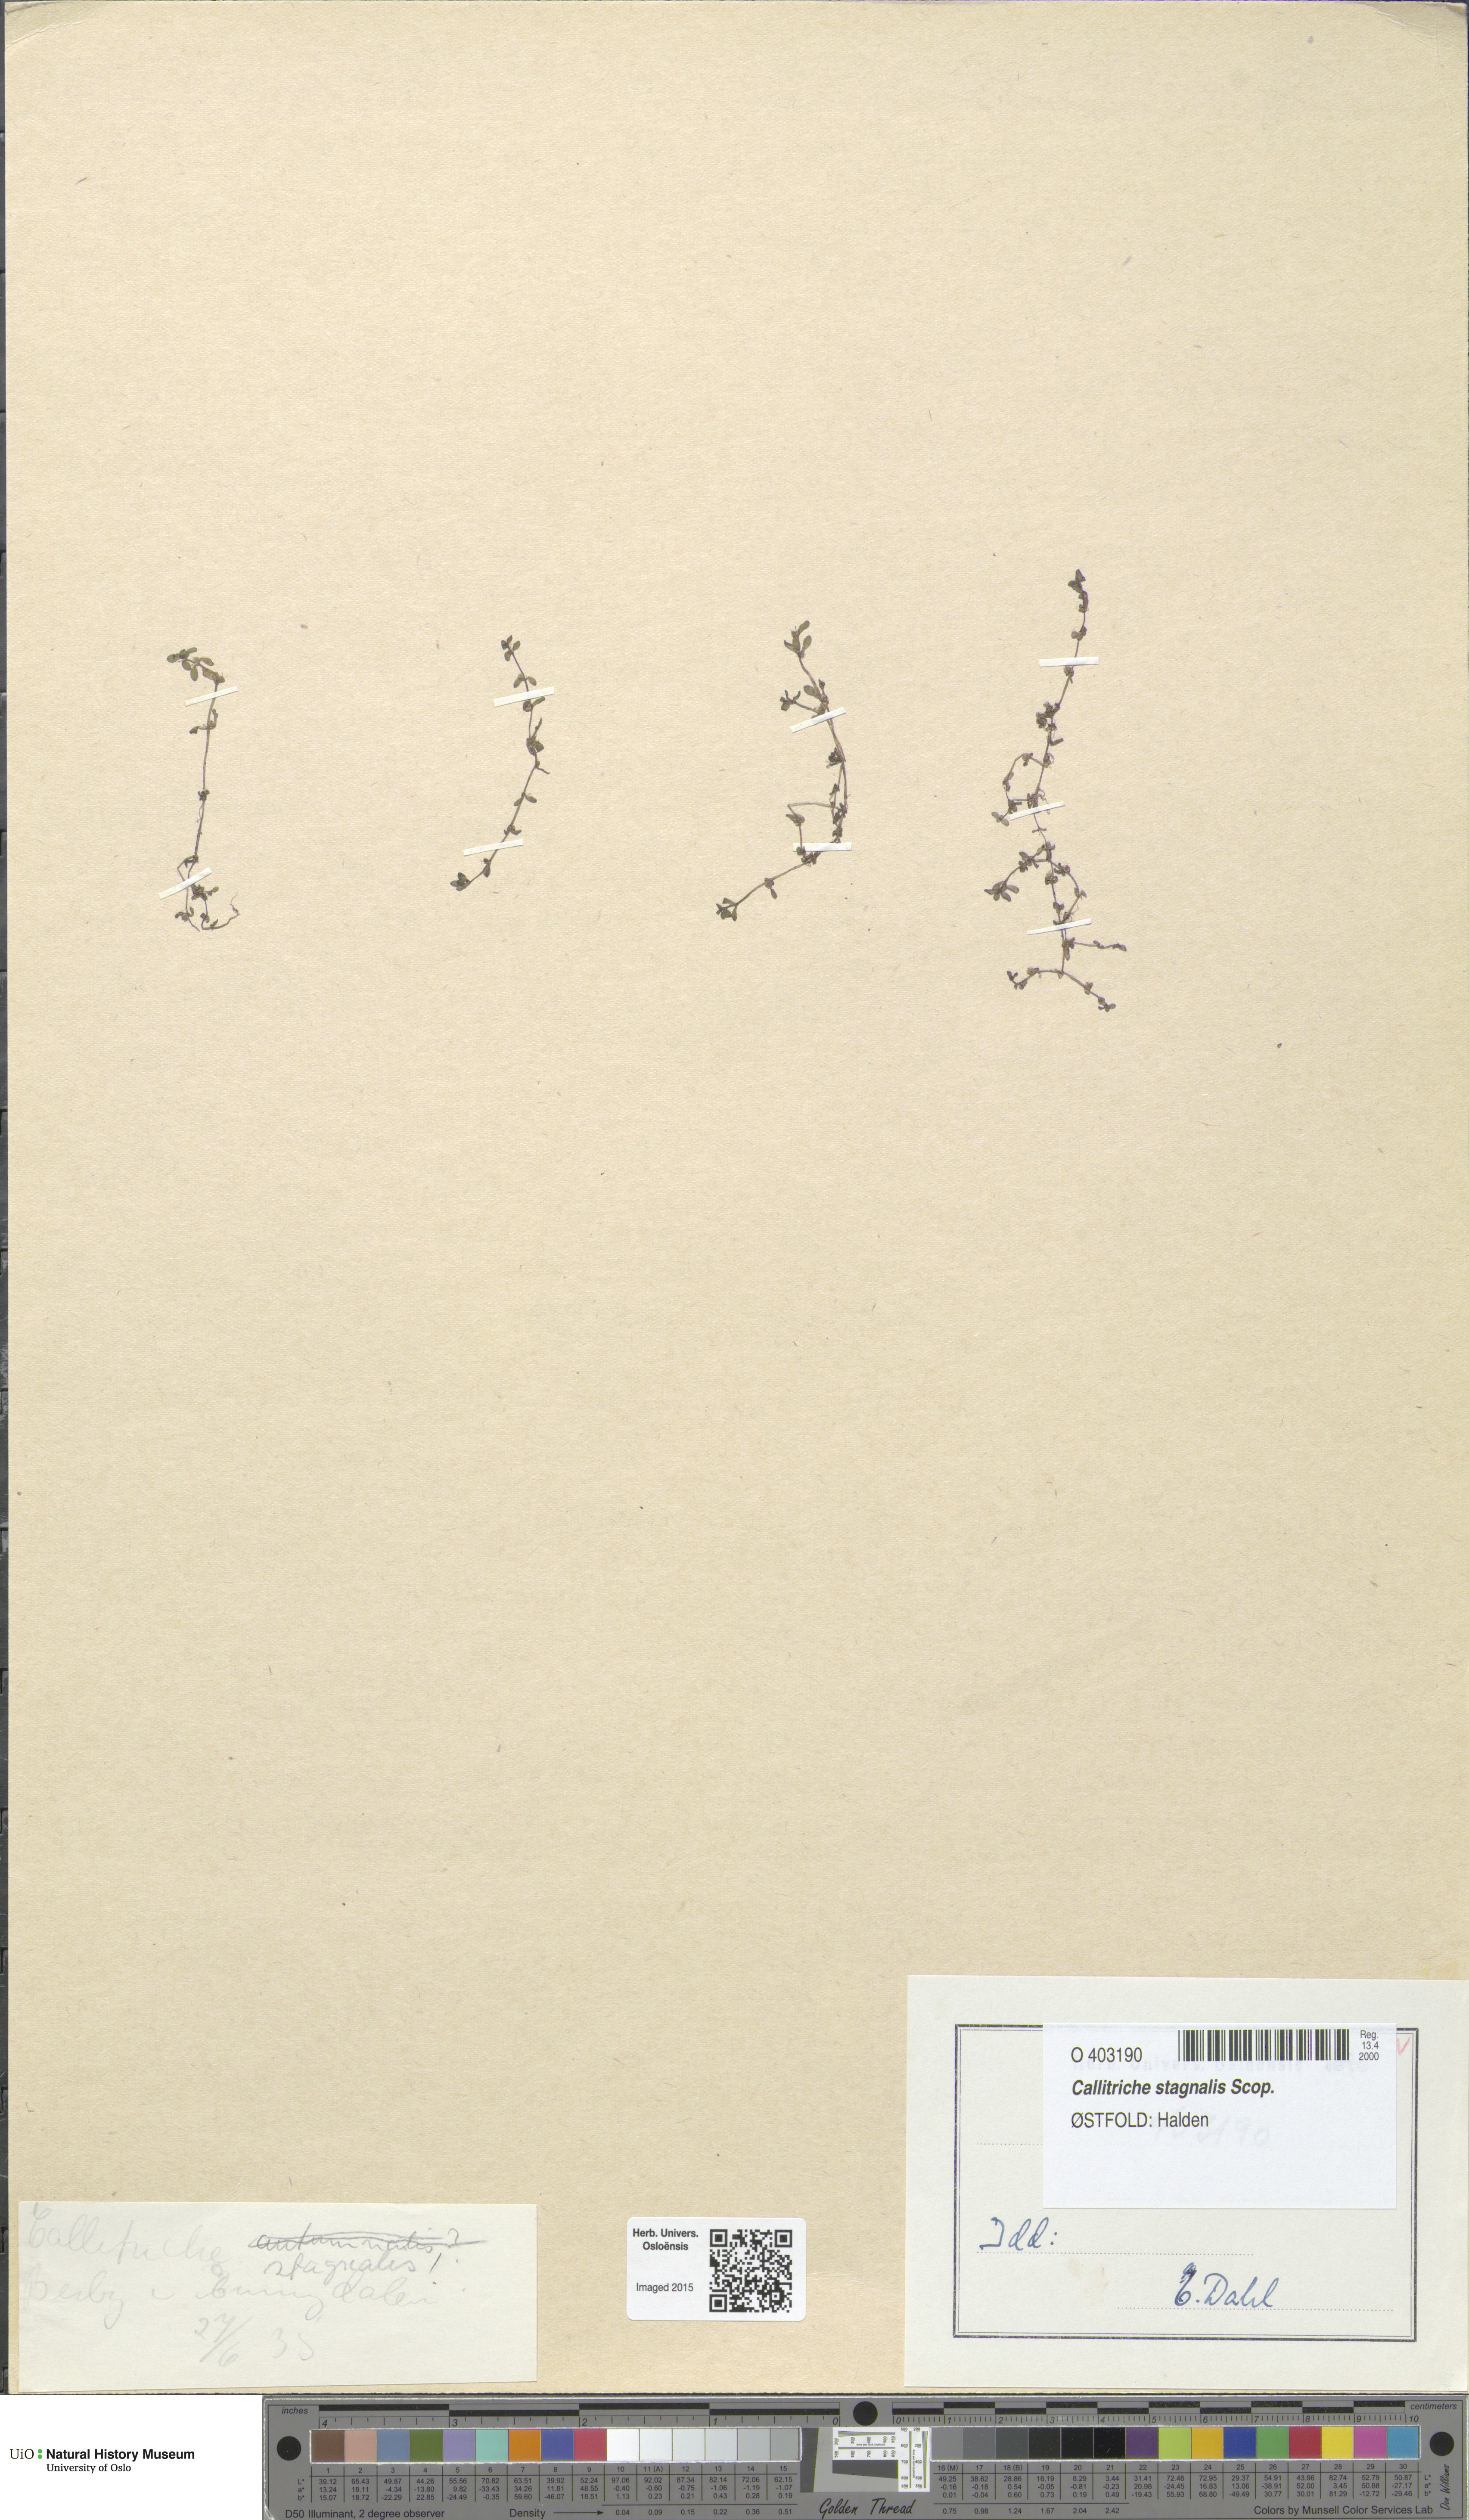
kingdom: Plantae
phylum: Tracheophyta
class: Magnoliopsida
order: Lamiales
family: Plantaginaceae
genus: Callitriche
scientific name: Callitriche stagnalis
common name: Common water-starwort
